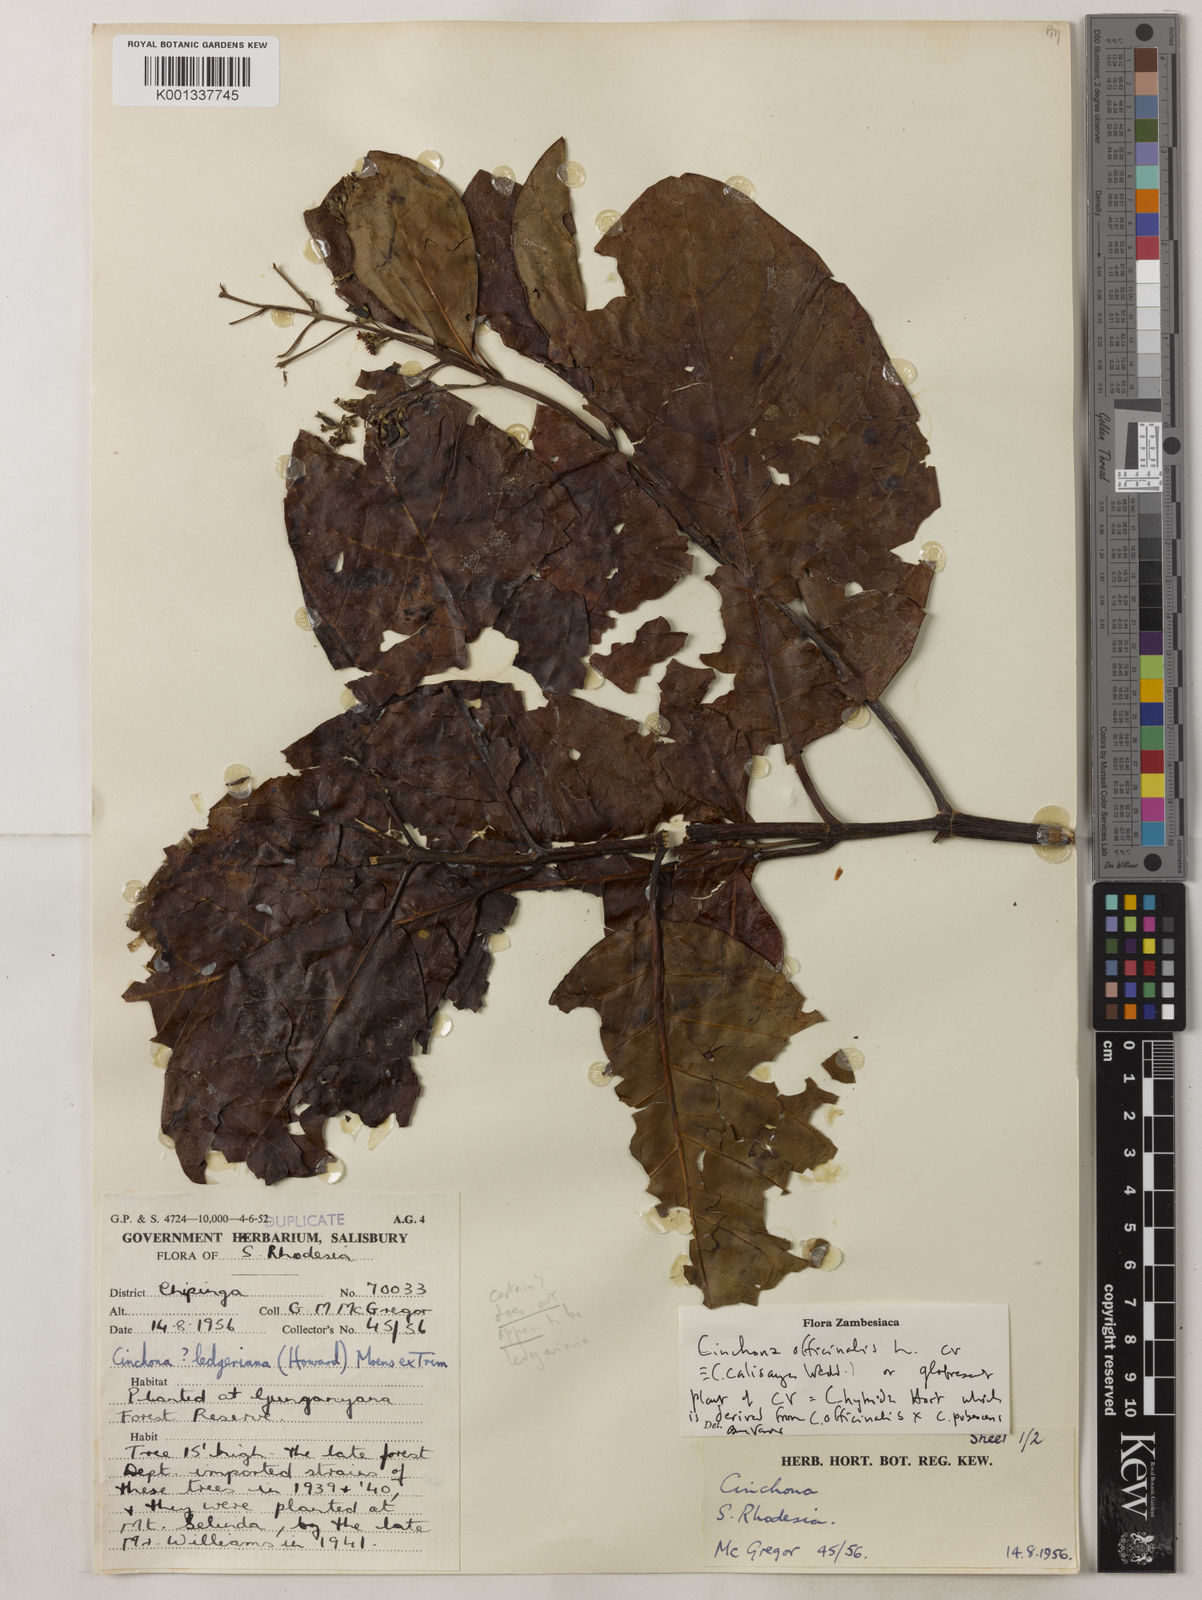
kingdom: Plantae
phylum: Tracheophyta
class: Magnoliopsida
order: Gentianales
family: Rubiaceae
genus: Cinchona
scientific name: Cinchona
